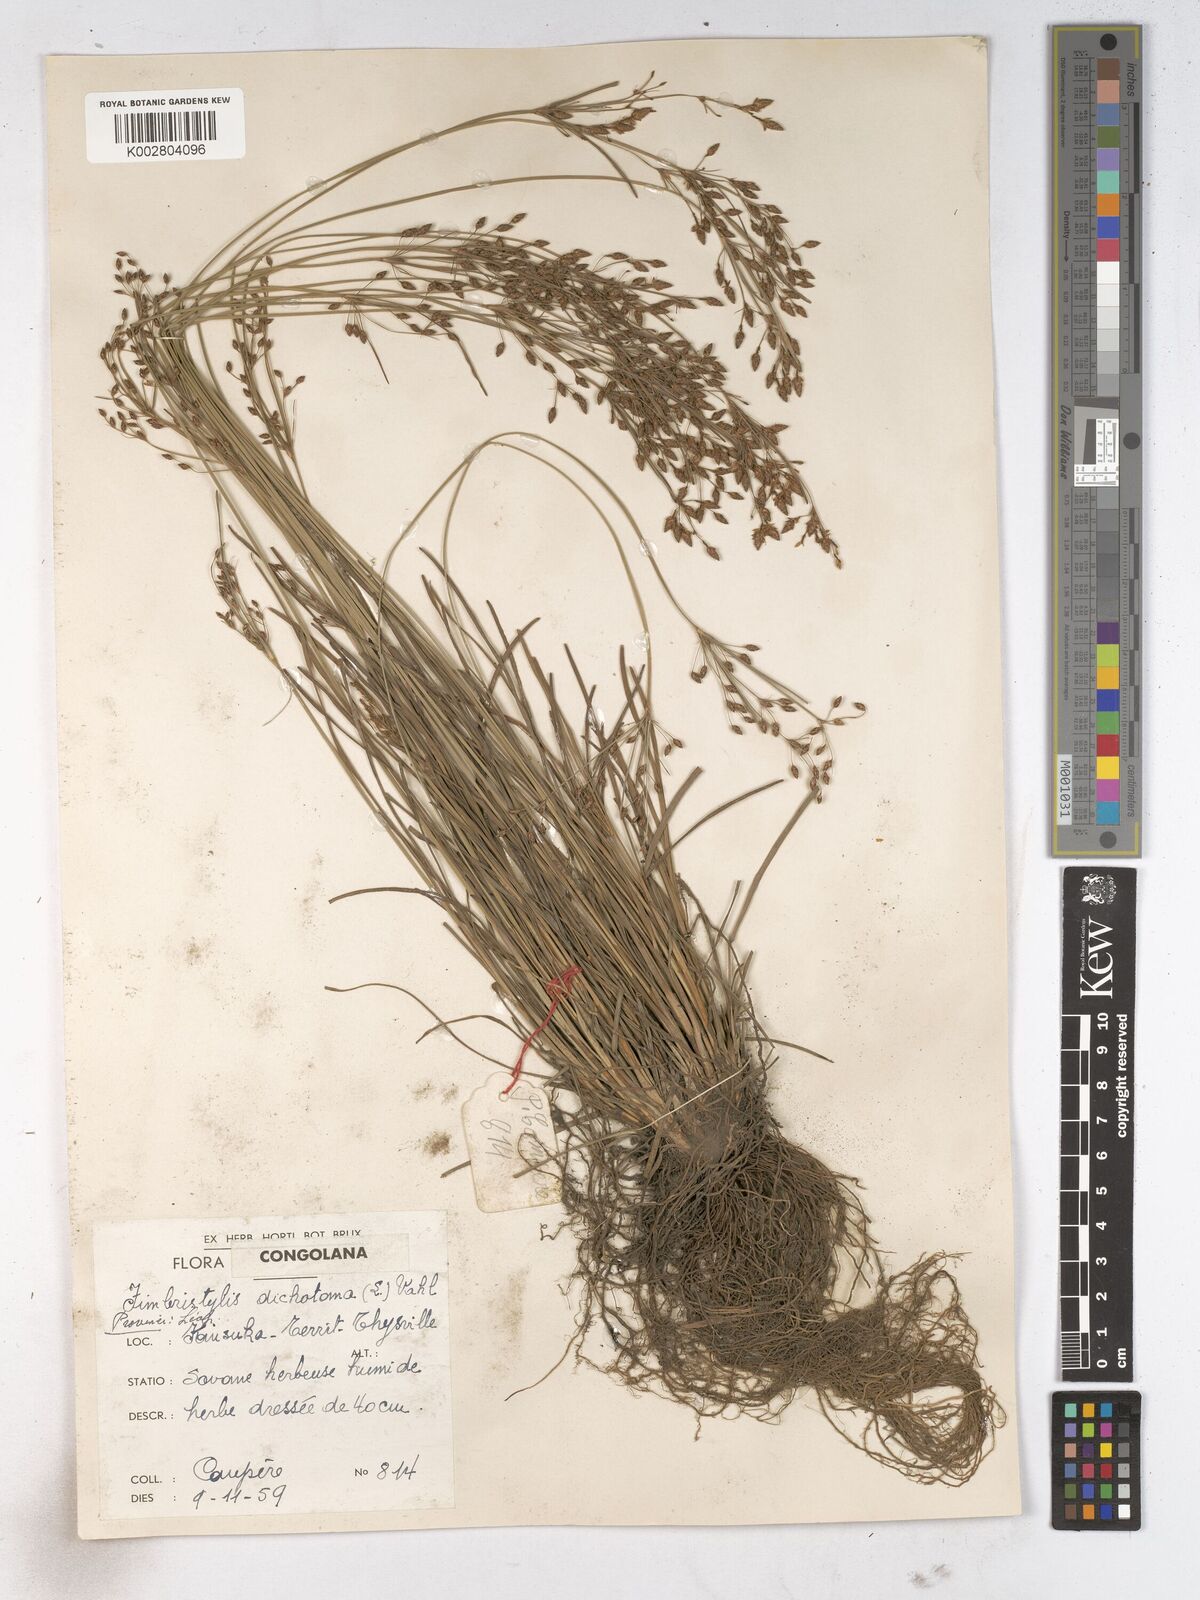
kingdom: Plantae
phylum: Tracheophyta
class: Liliopsida
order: Poales
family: Cyperaceae
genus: Fimbristylis
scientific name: Fimbristylis dichotoma
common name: Forked fimbry
